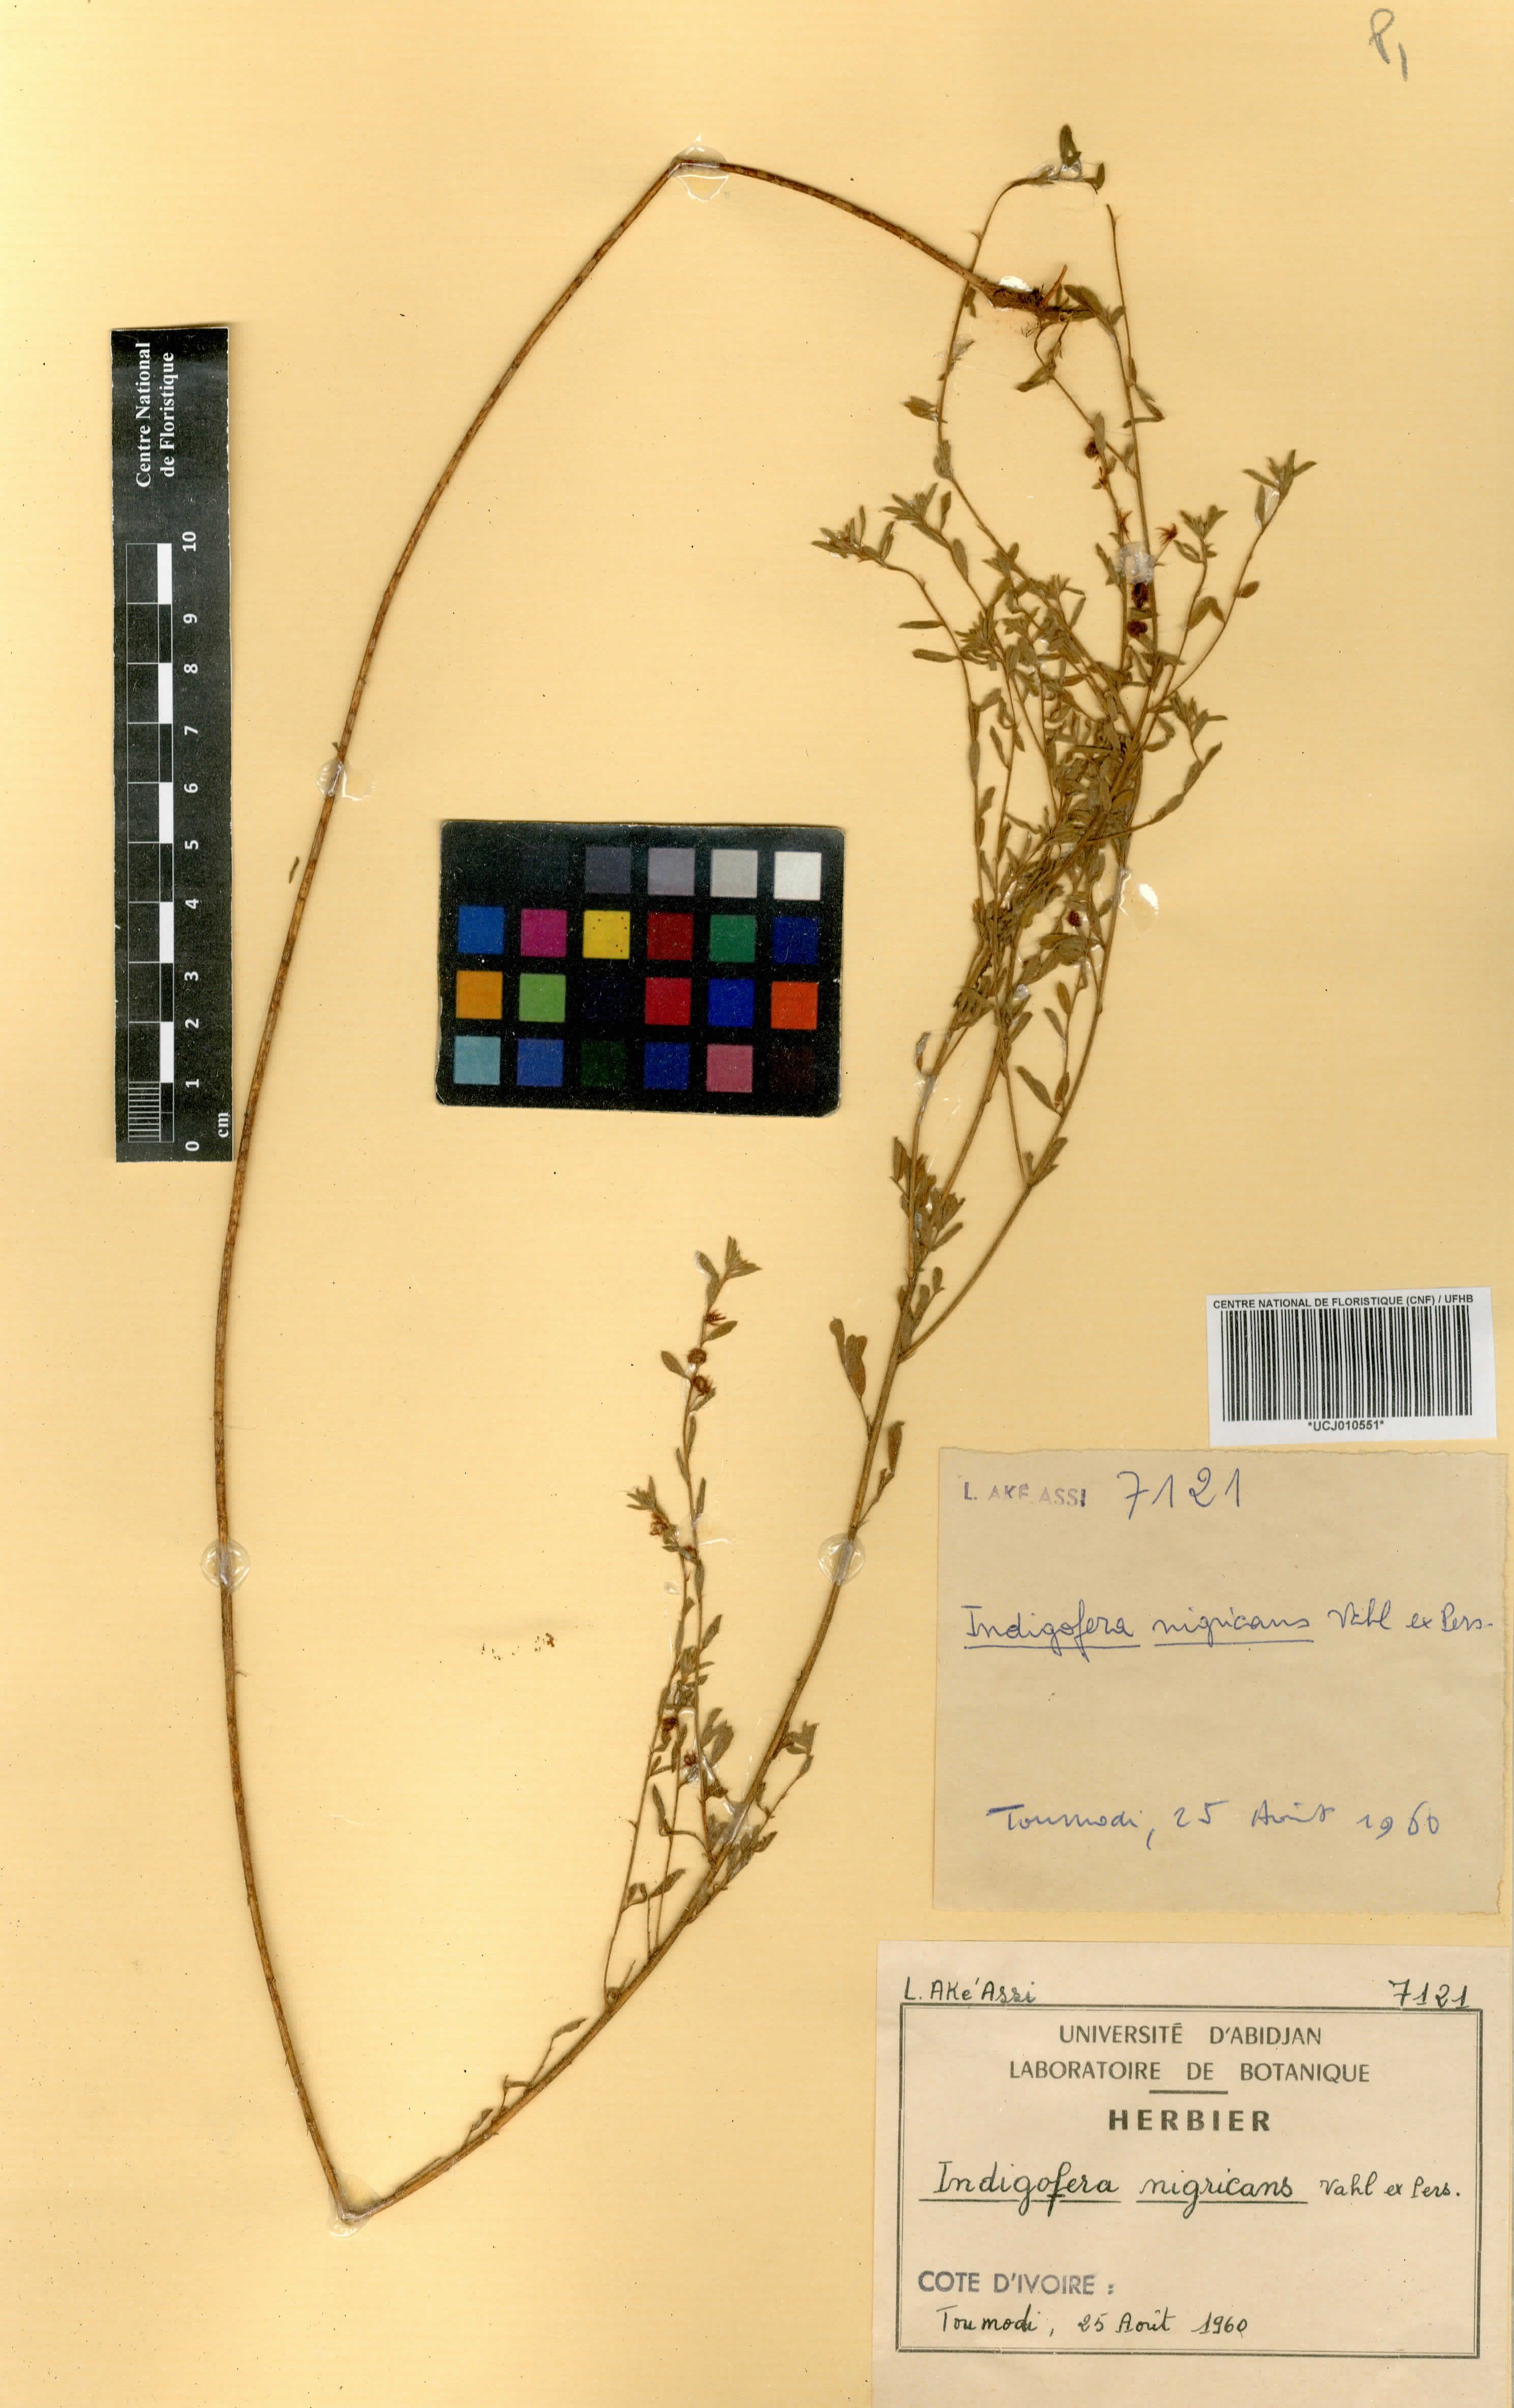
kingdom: Plantae
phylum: Tracheophyta
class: Magnoliopsida
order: Fabales
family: Fabaceae
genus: Indigofera
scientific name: Indigofera nigricans
